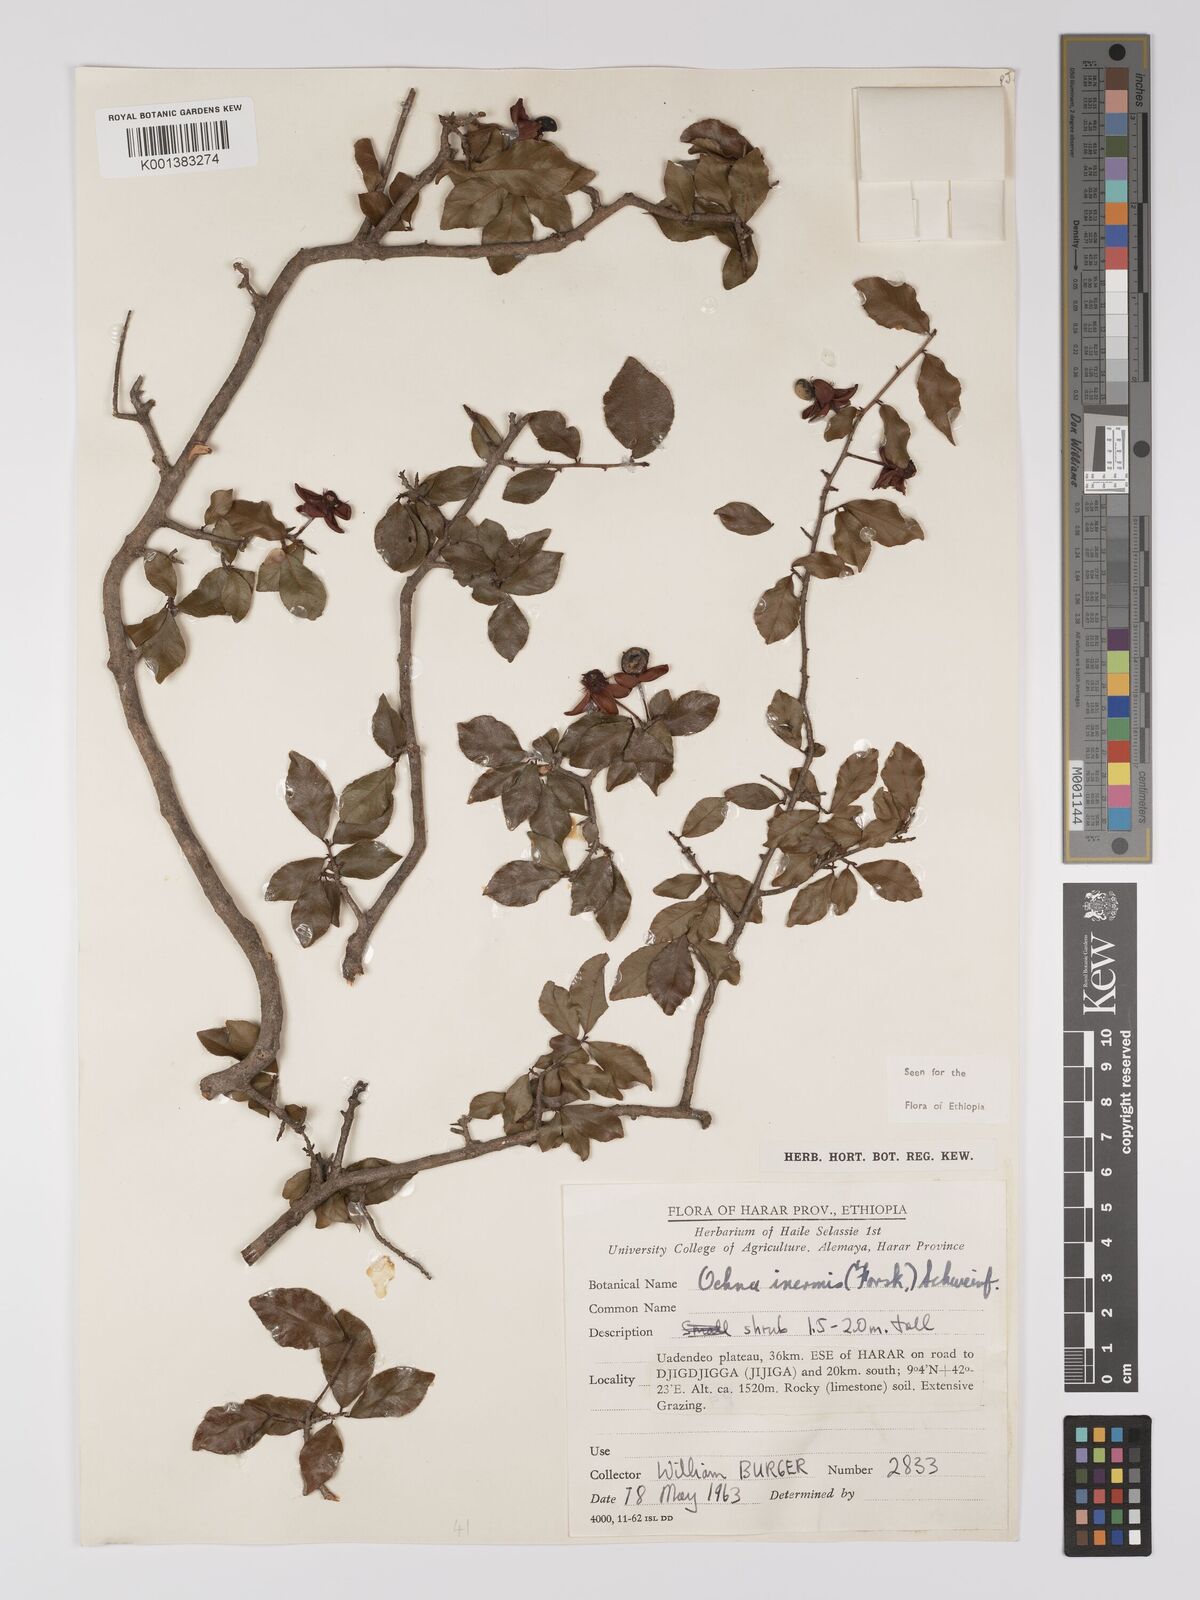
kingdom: Plantae
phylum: Tracheophyta
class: Magnoliopsida
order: Malpighiales
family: Ochnaceae
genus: Ochna
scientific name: Ochna inermis
